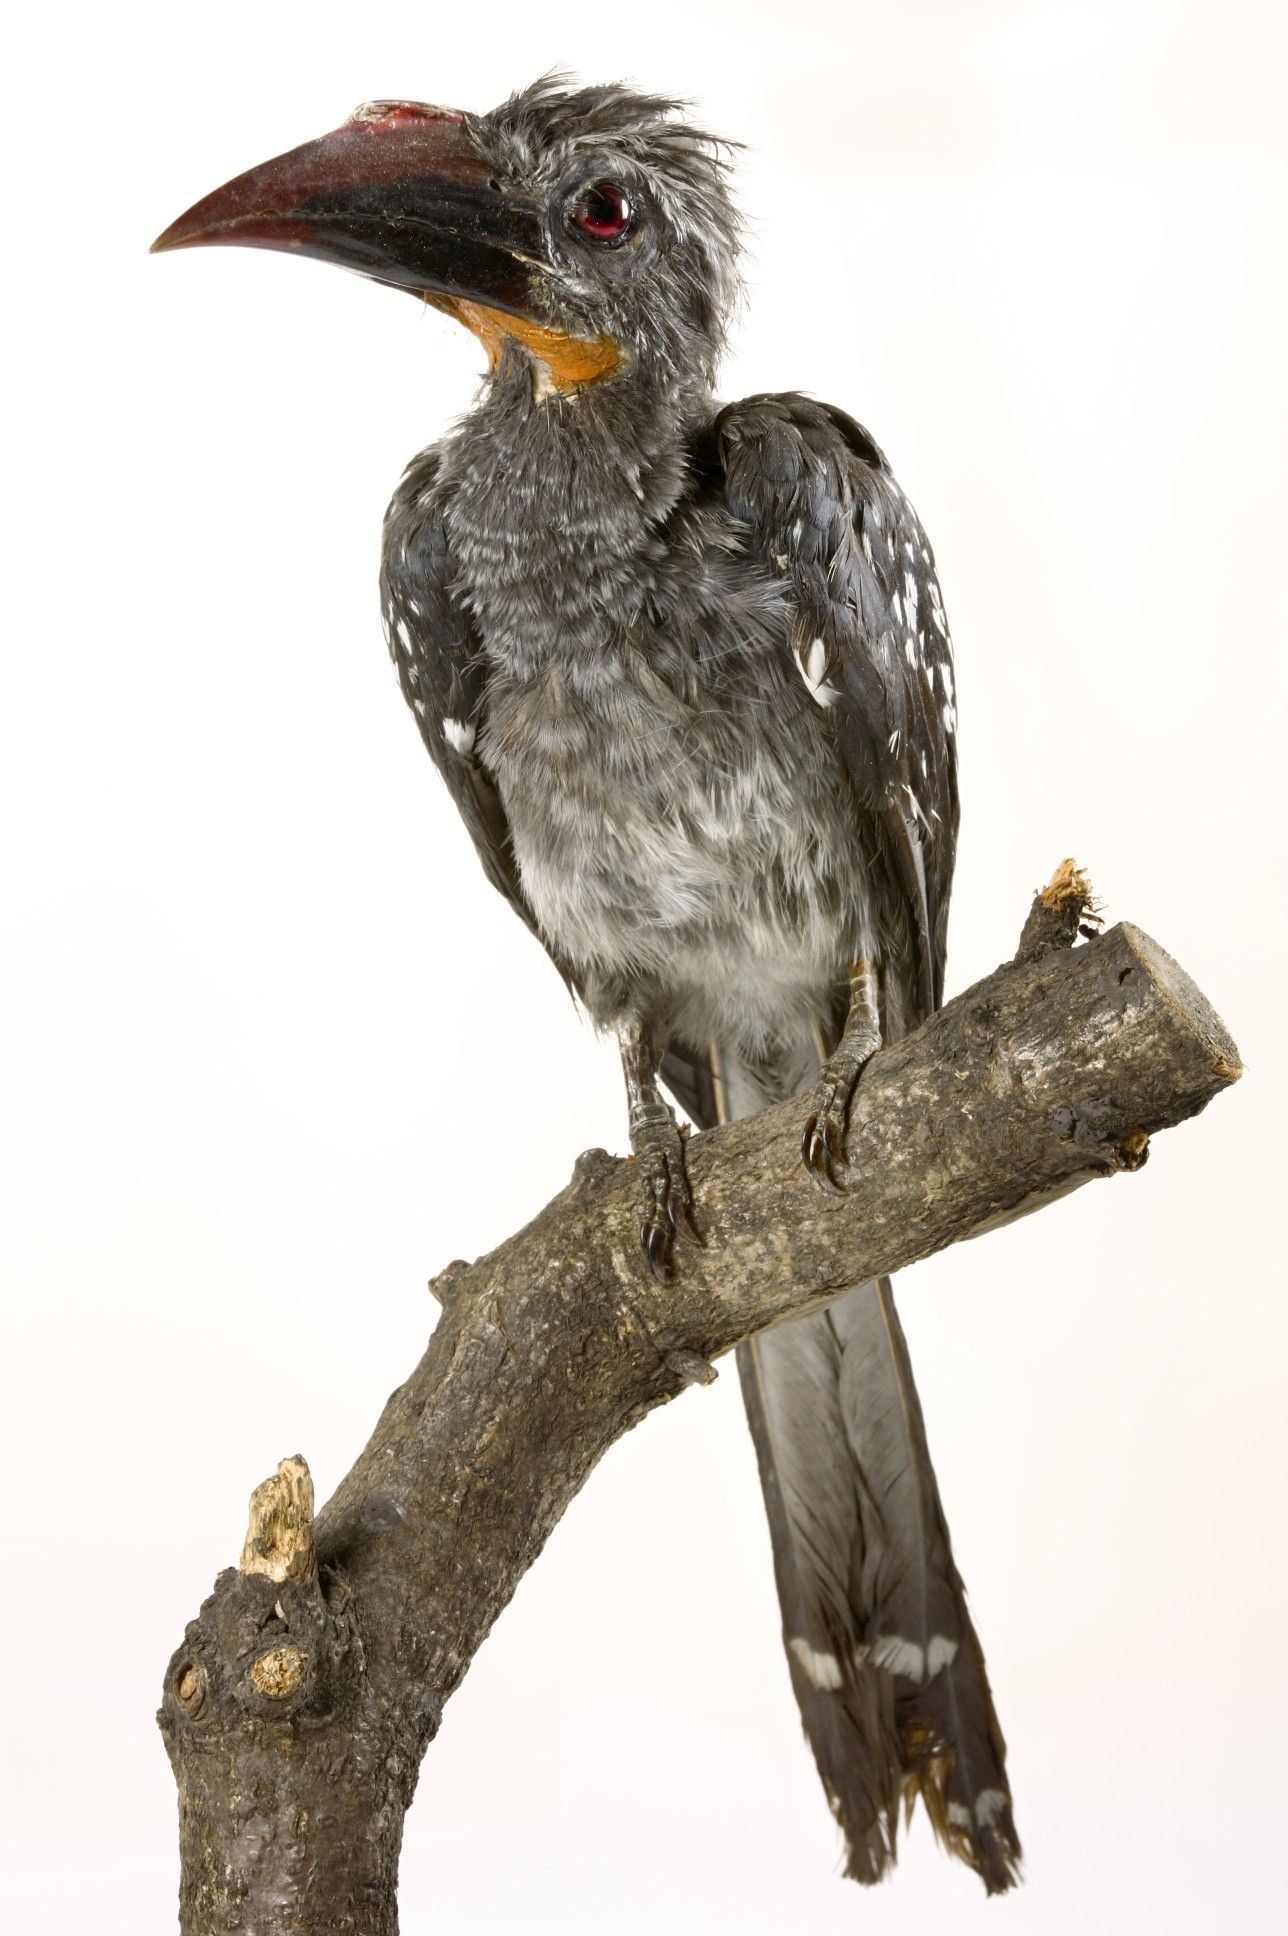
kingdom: Animalia
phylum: Chordata
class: Aves
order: Bucerotiformes
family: Bucerotidae
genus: Horizocerus
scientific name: Horizocerus hartlaubi
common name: Black dwarf hornbill
